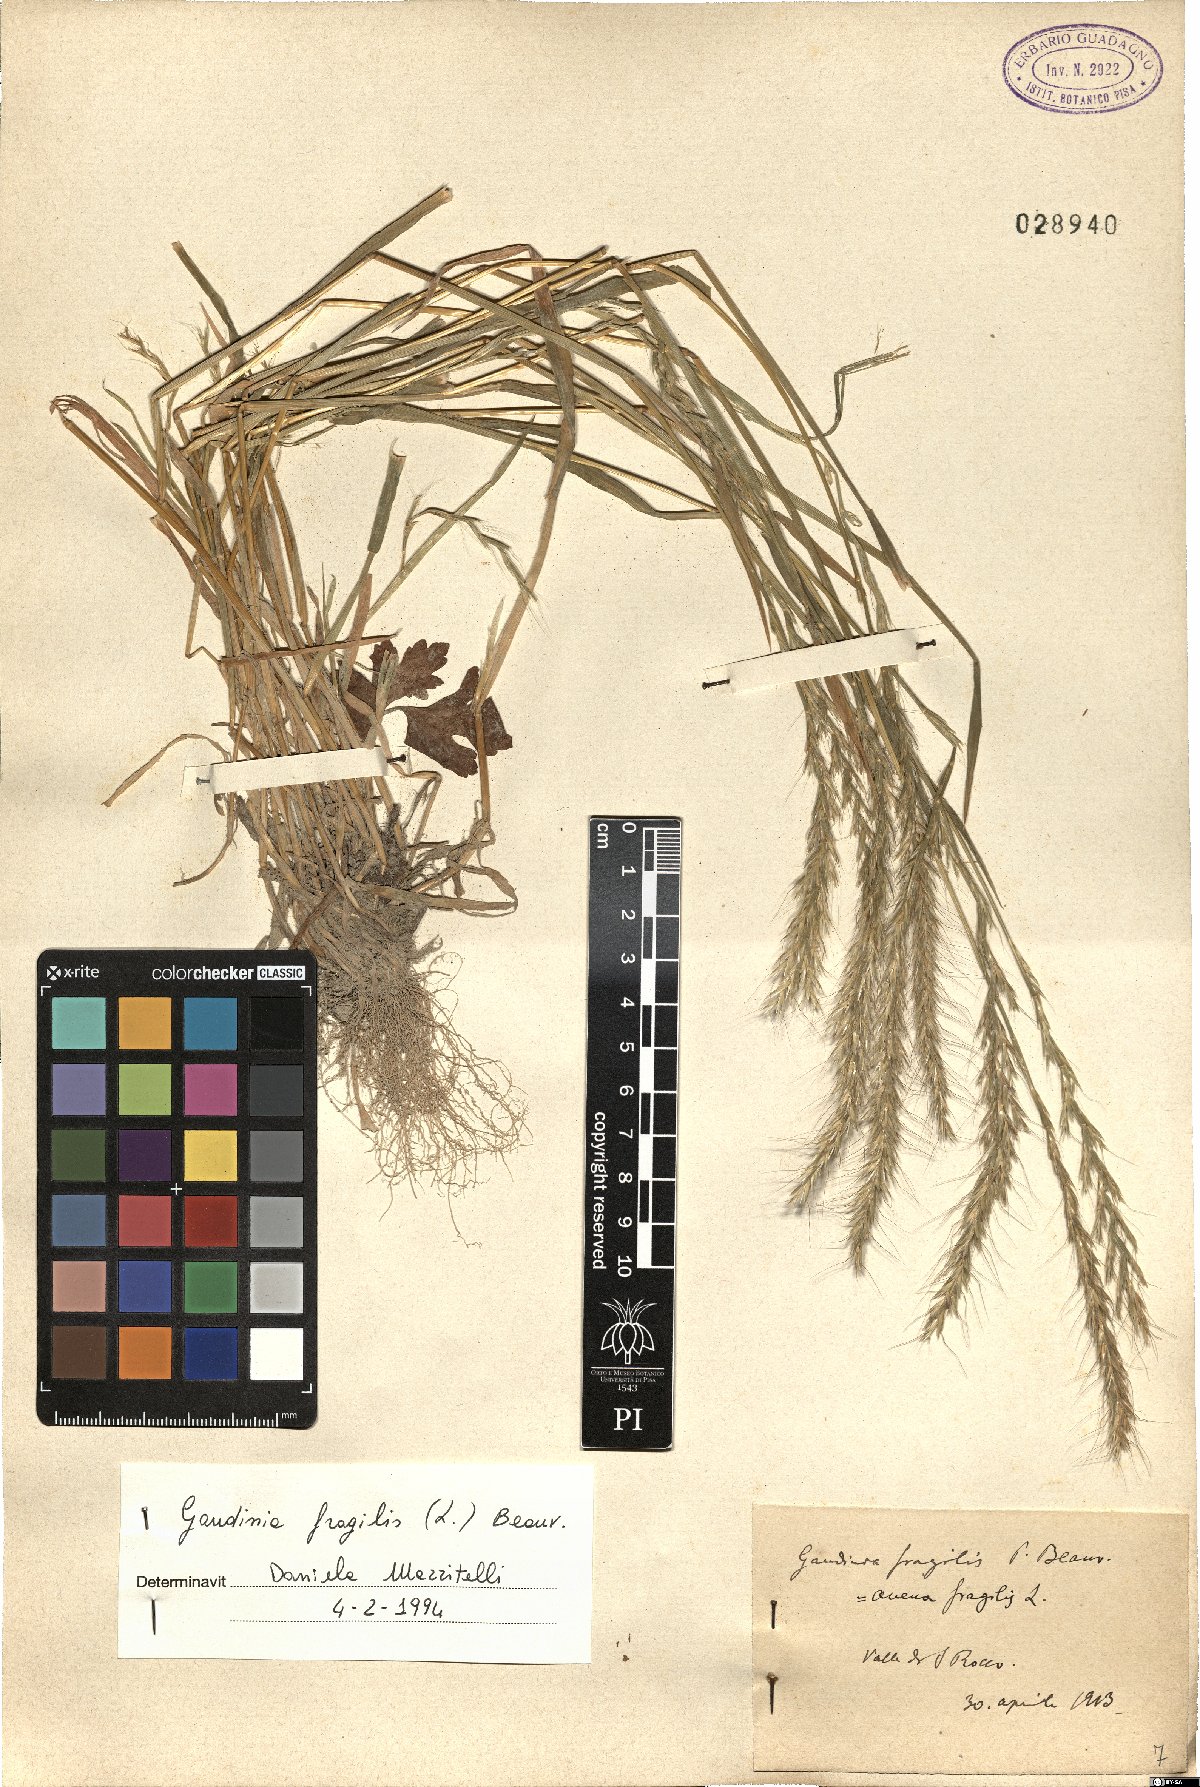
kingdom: Plantae
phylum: Tracheophyta
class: Liliopsida
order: Poales
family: Poaceae
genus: Gaudinia
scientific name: Gaudinia fragilis
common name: French oat-grass
